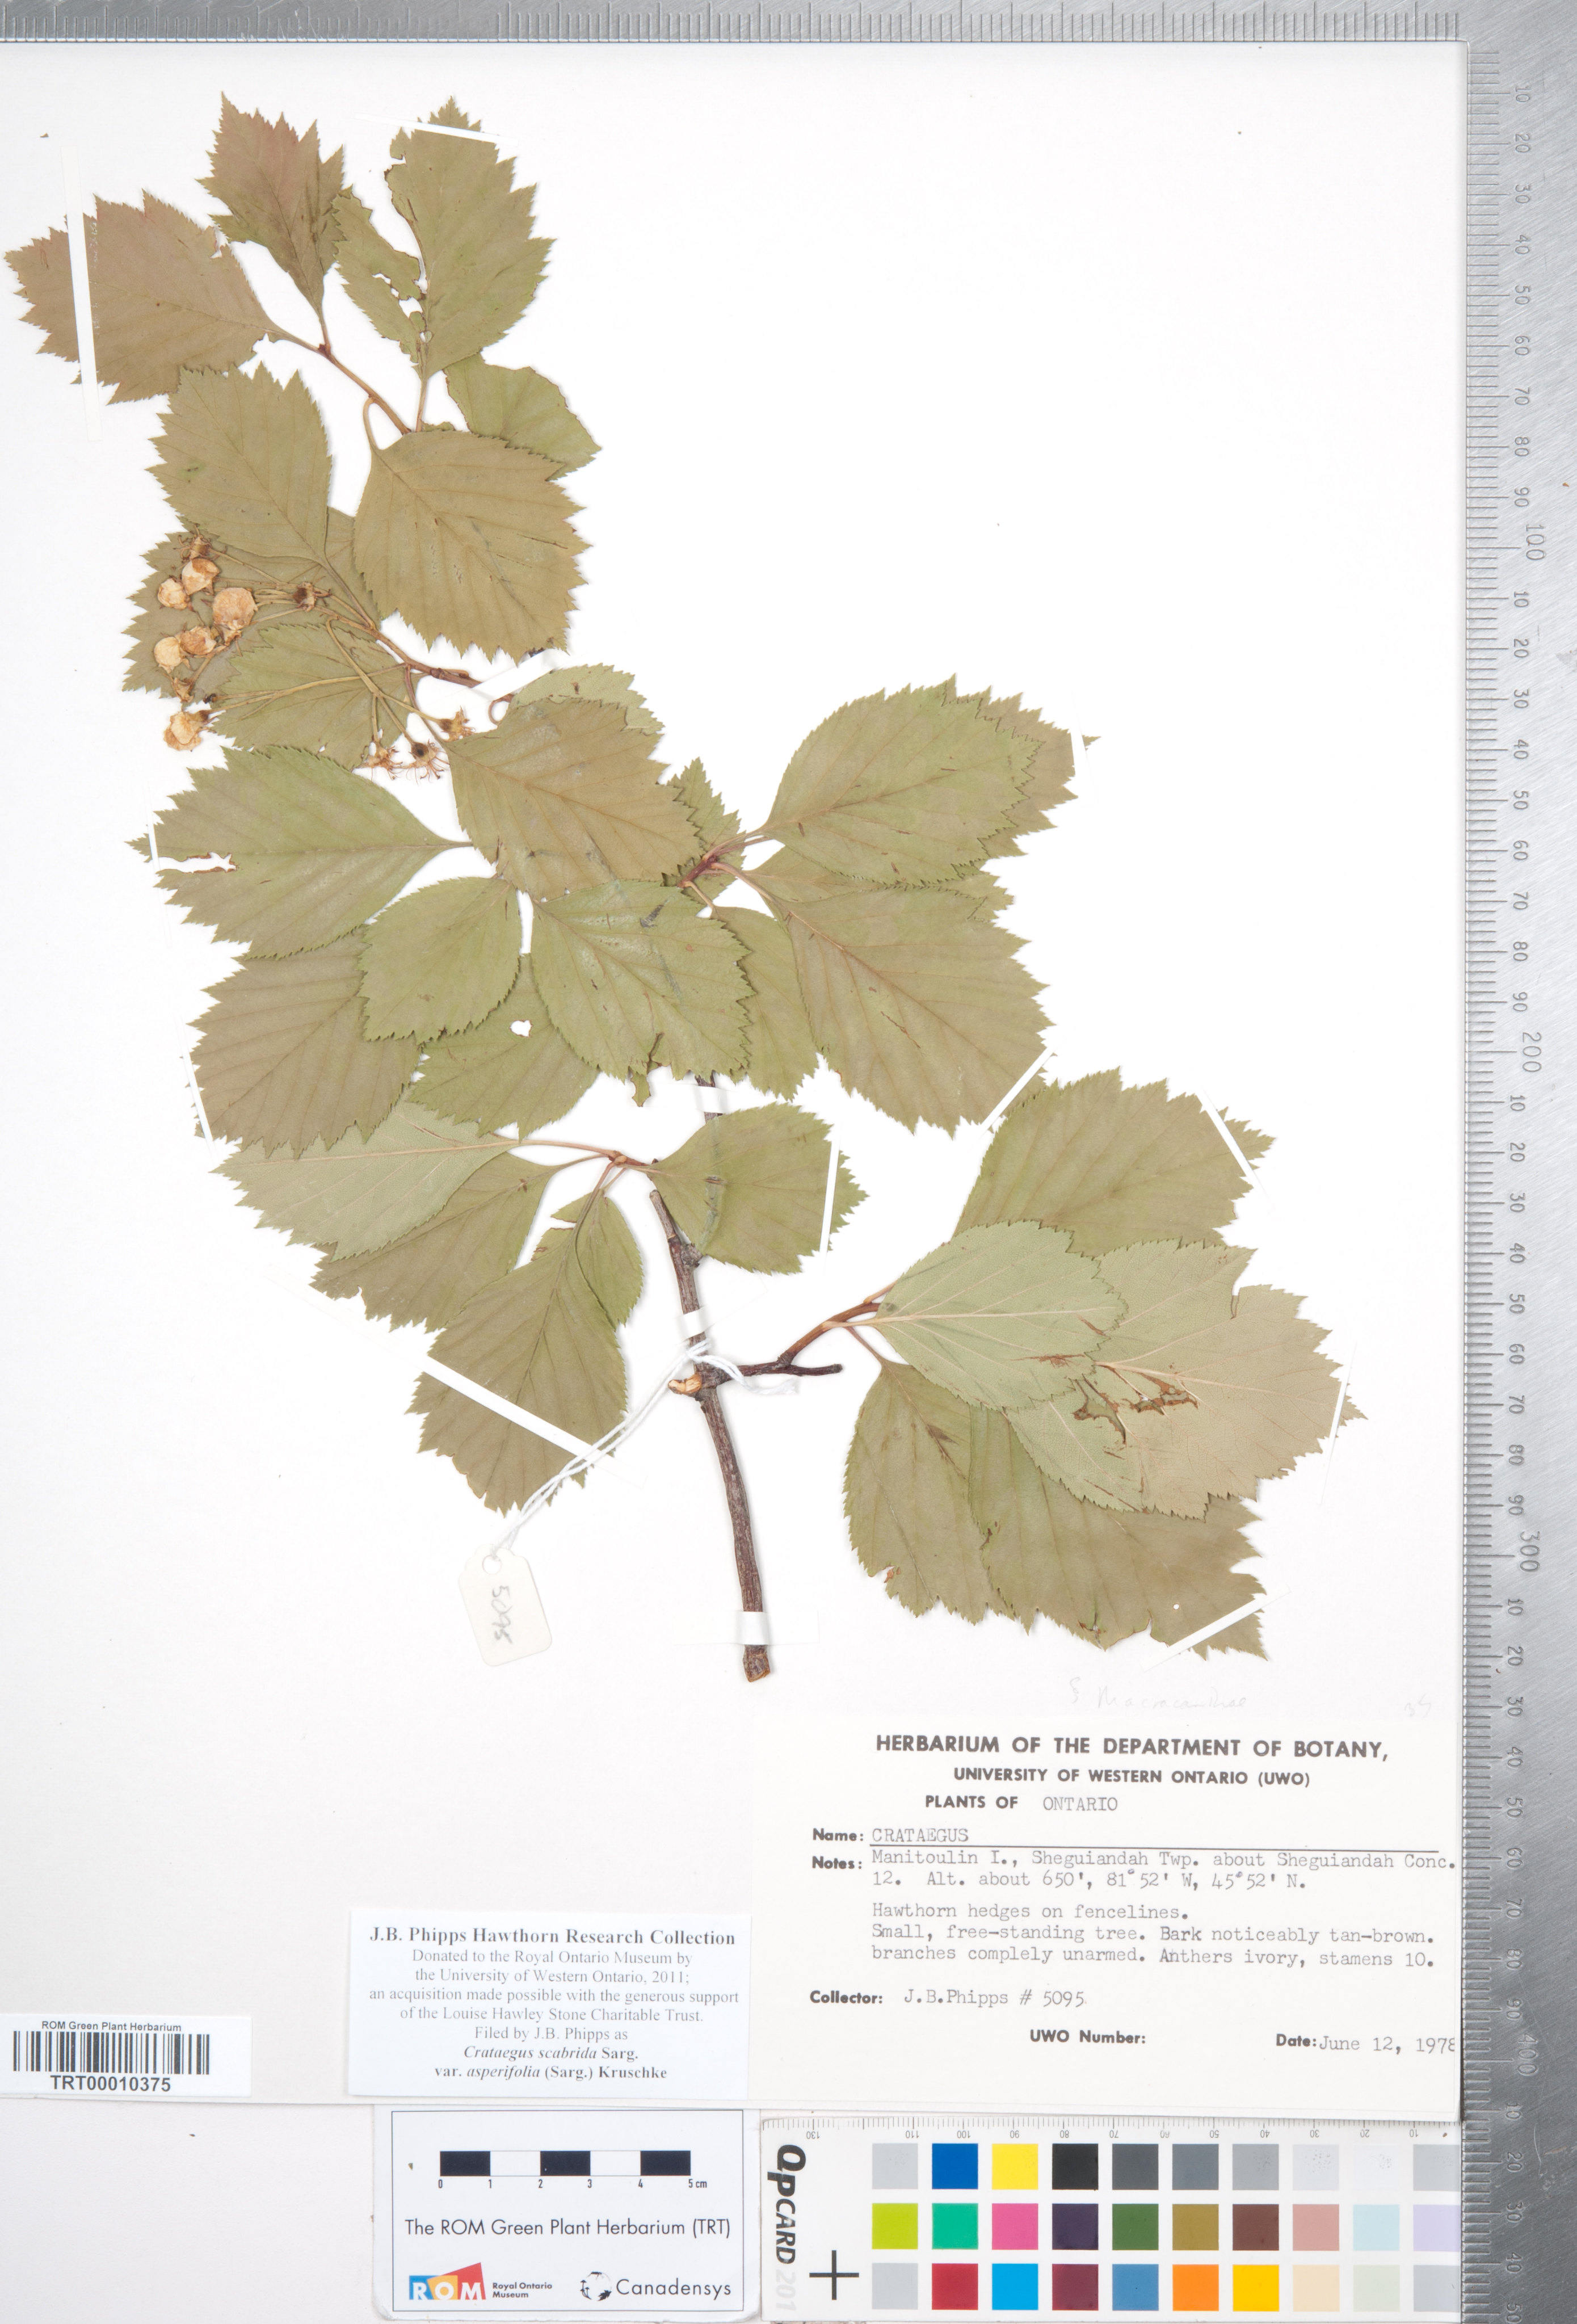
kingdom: Plantae
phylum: Tracheophyta
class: Magnoliopsida
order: Rosales
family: Rosaceae
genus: Crataegus
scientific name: Crataegus scabrida
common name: Rough hawthorn
